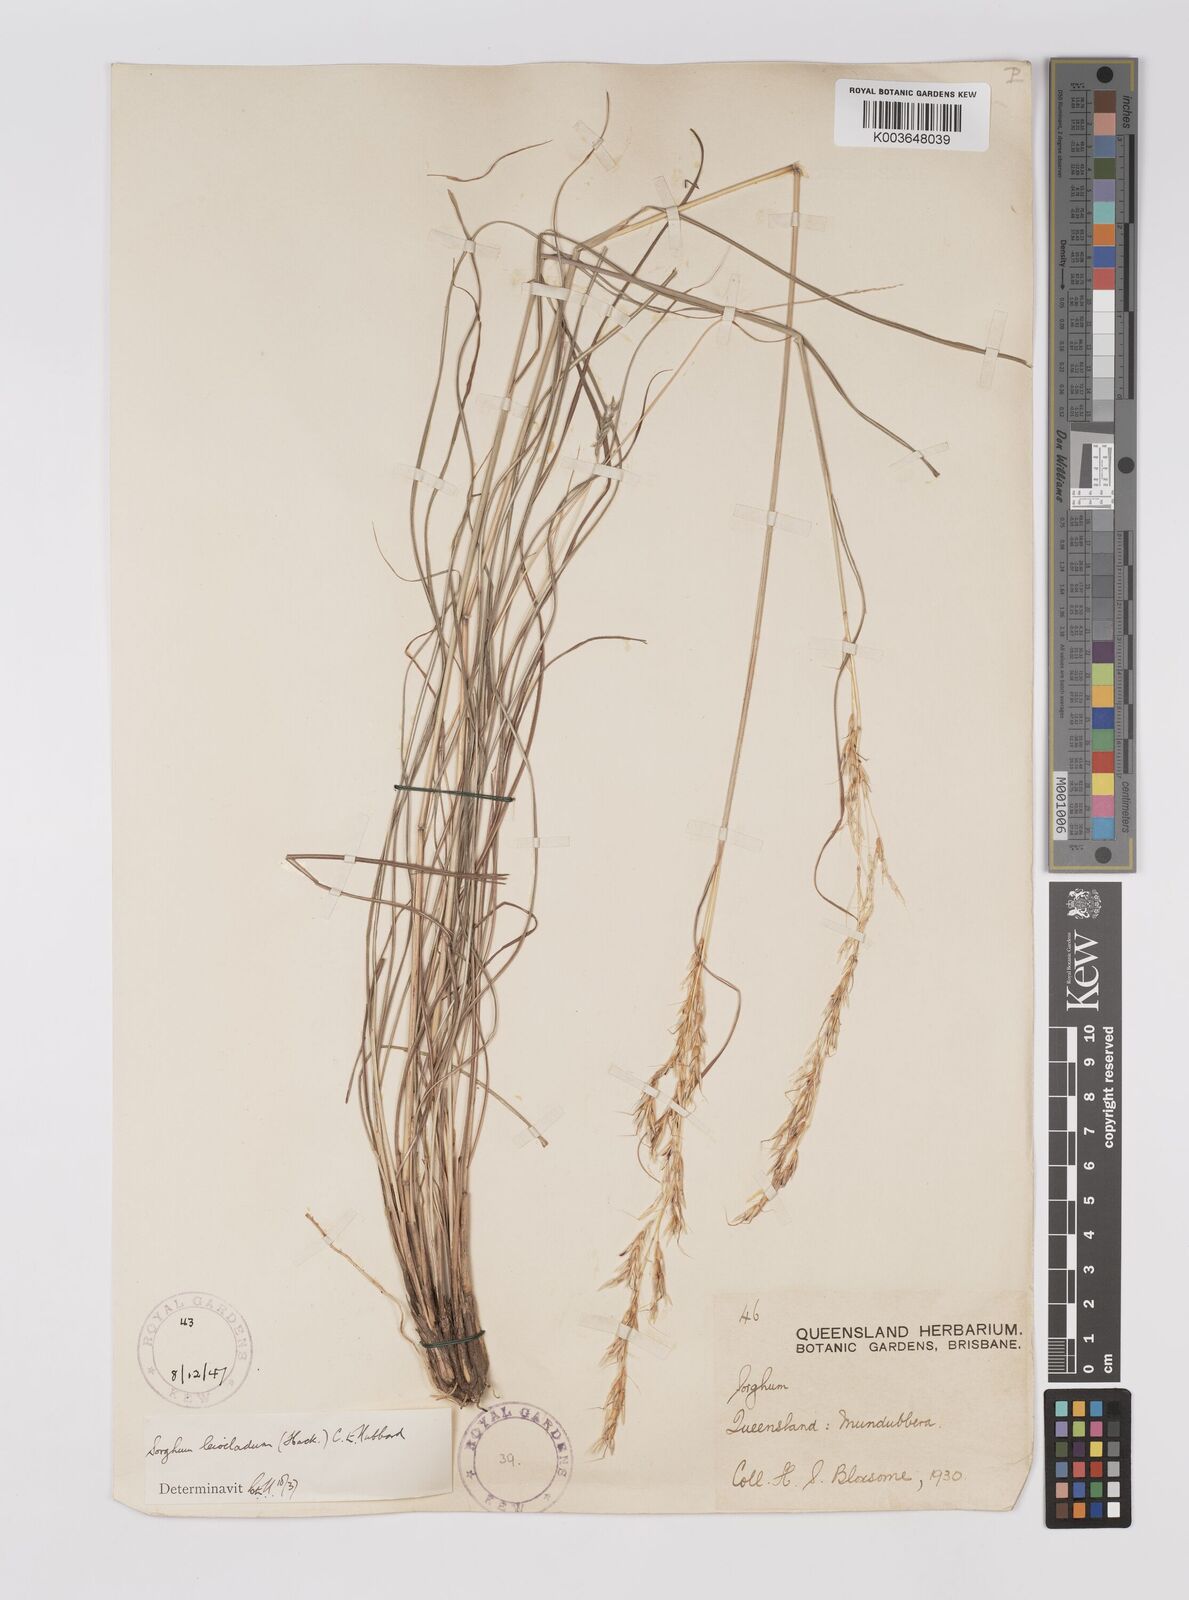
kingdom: Plantae
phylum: Tracheophyta
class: Liliopsida
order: Poales
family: Poaceae
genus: Sarga
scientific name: Sarga leioclada
